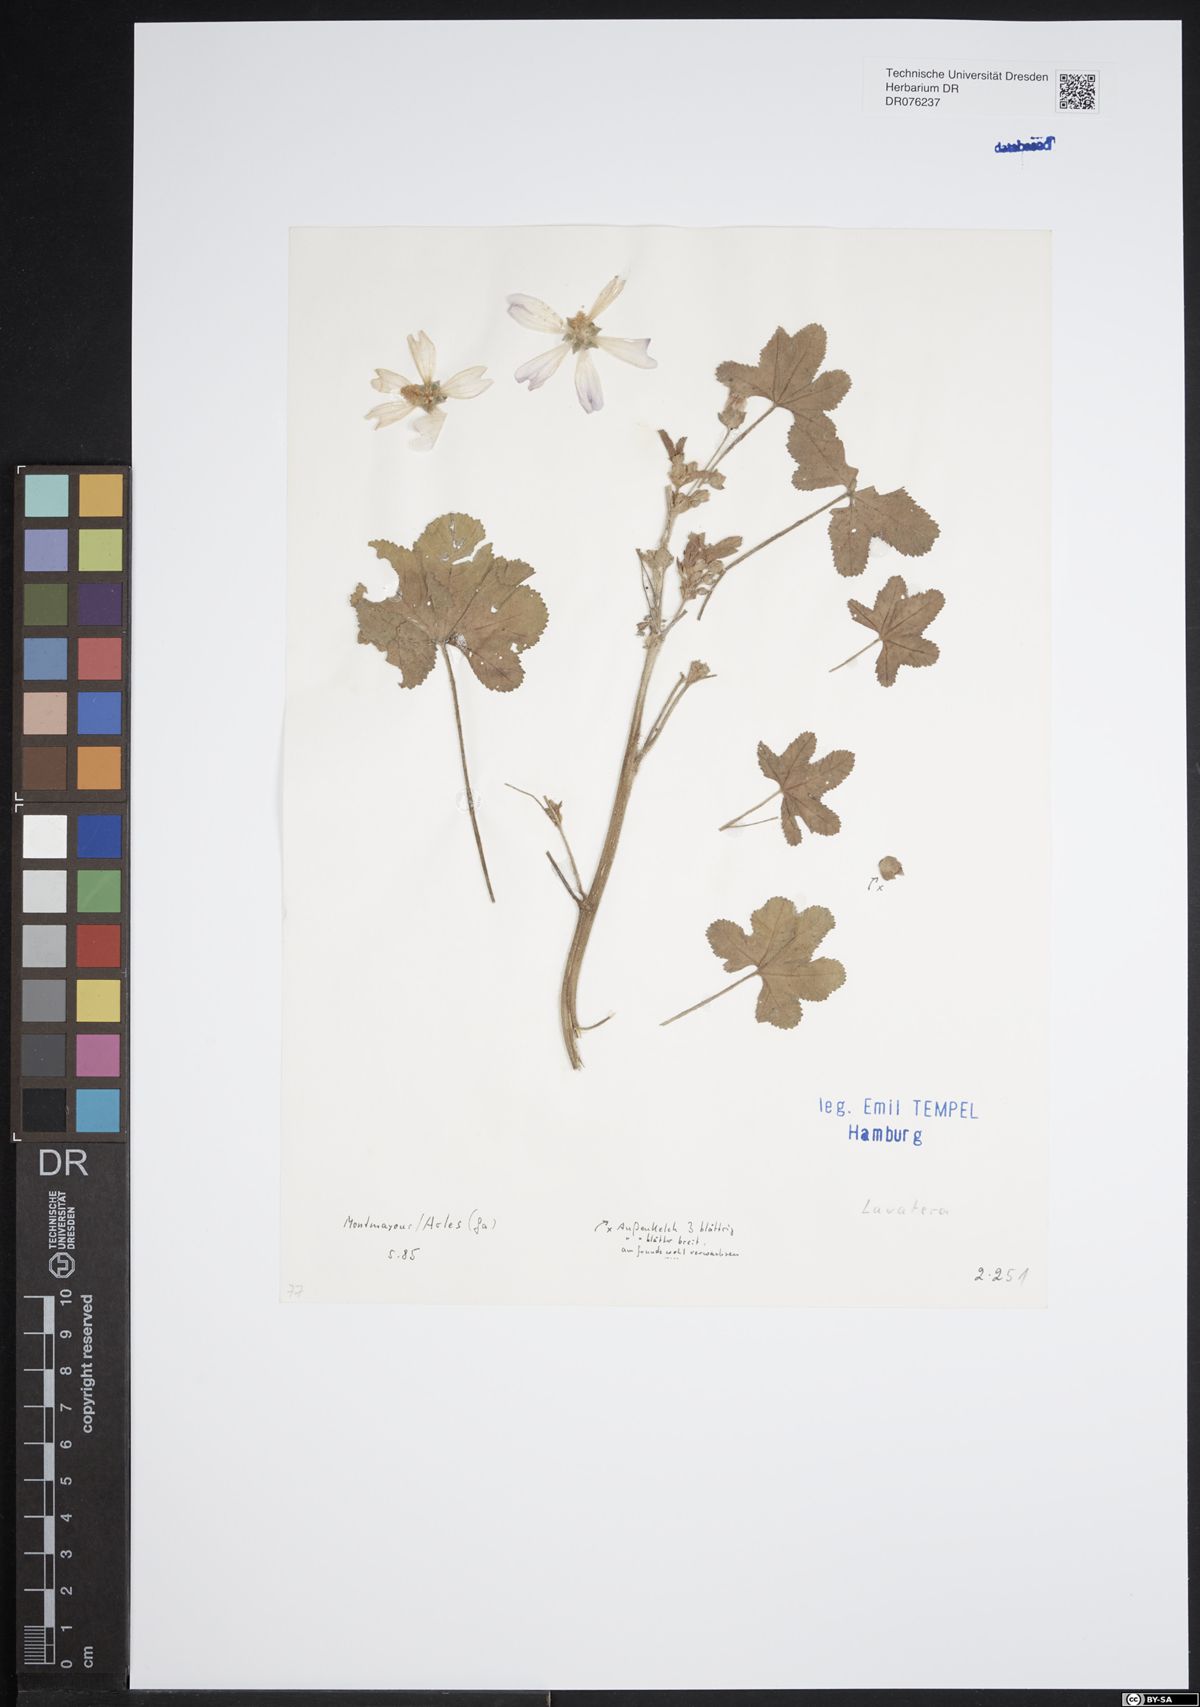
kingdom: Plantae
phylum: Tracheophyta
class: Magnoliopsida
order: Malvales
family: Malvaceae
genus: Malva
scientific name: Malva
